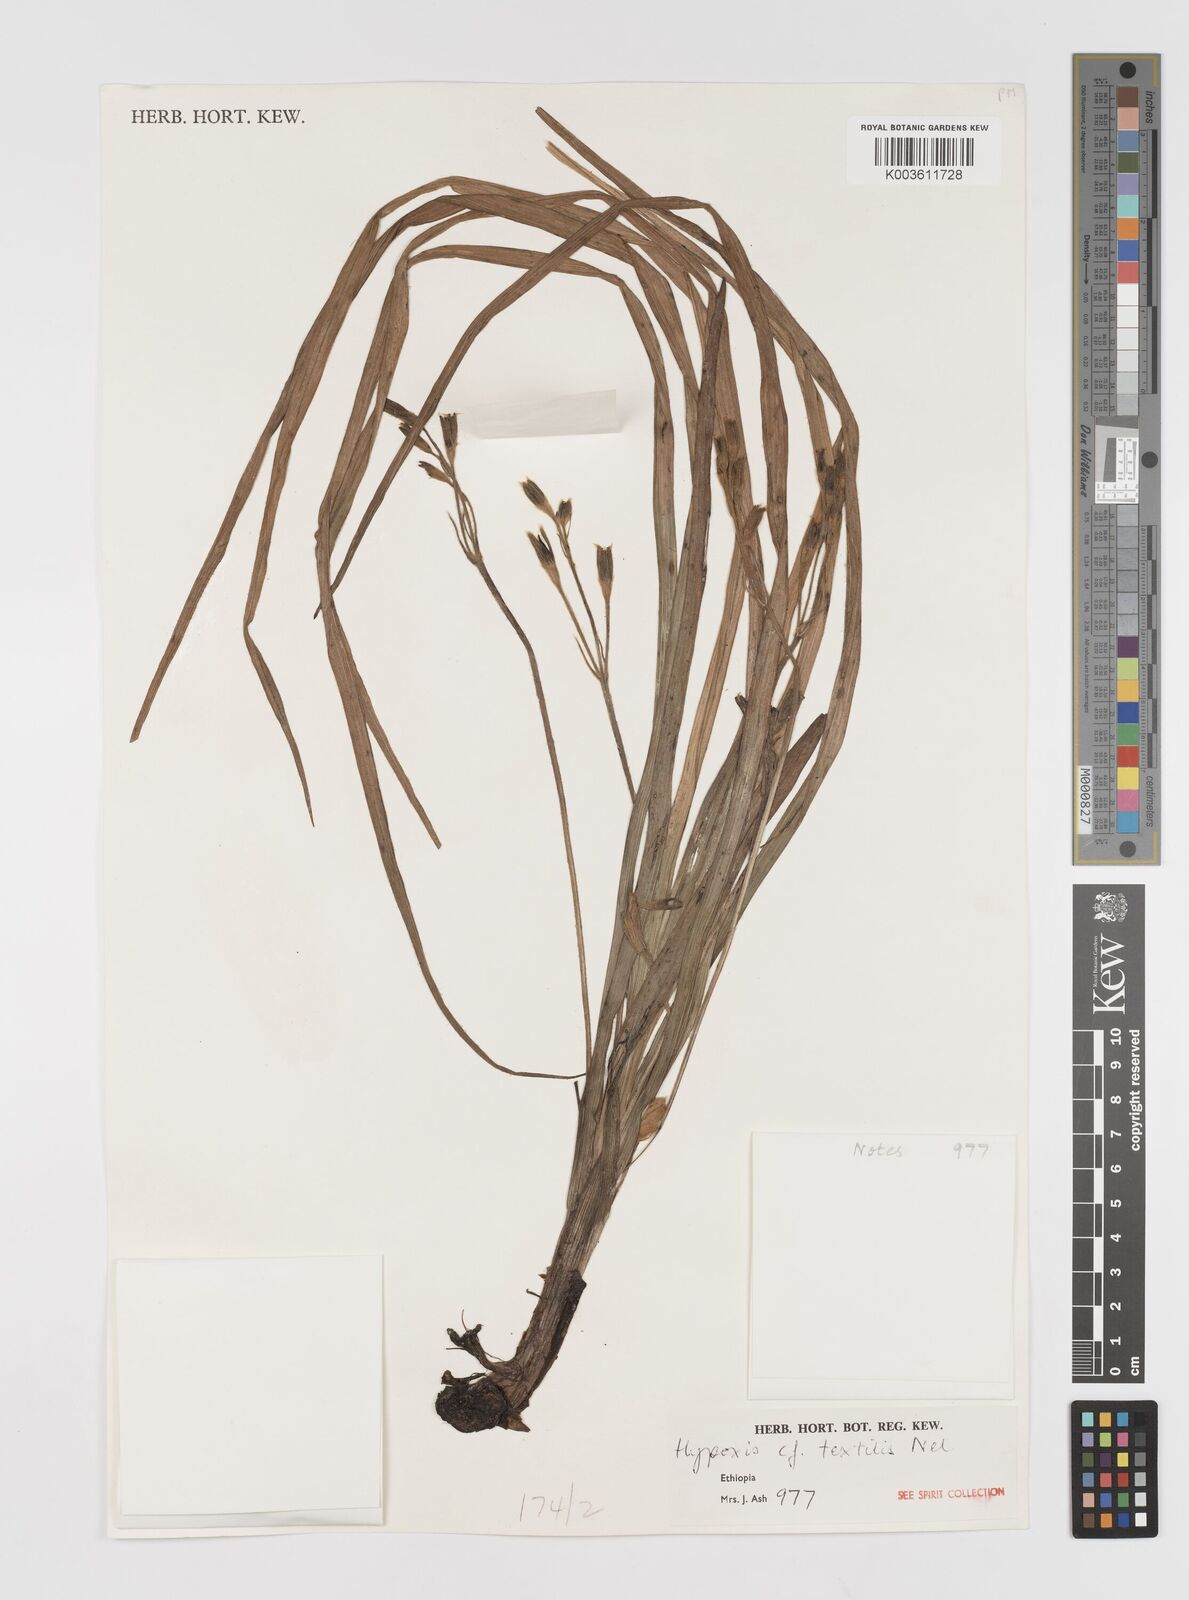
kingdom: Plantae
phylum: Tracheophyta
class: Liliopsida
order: Asparagales
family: Hypoxidaceae
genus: Hypoxis
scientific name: Hypoxis
